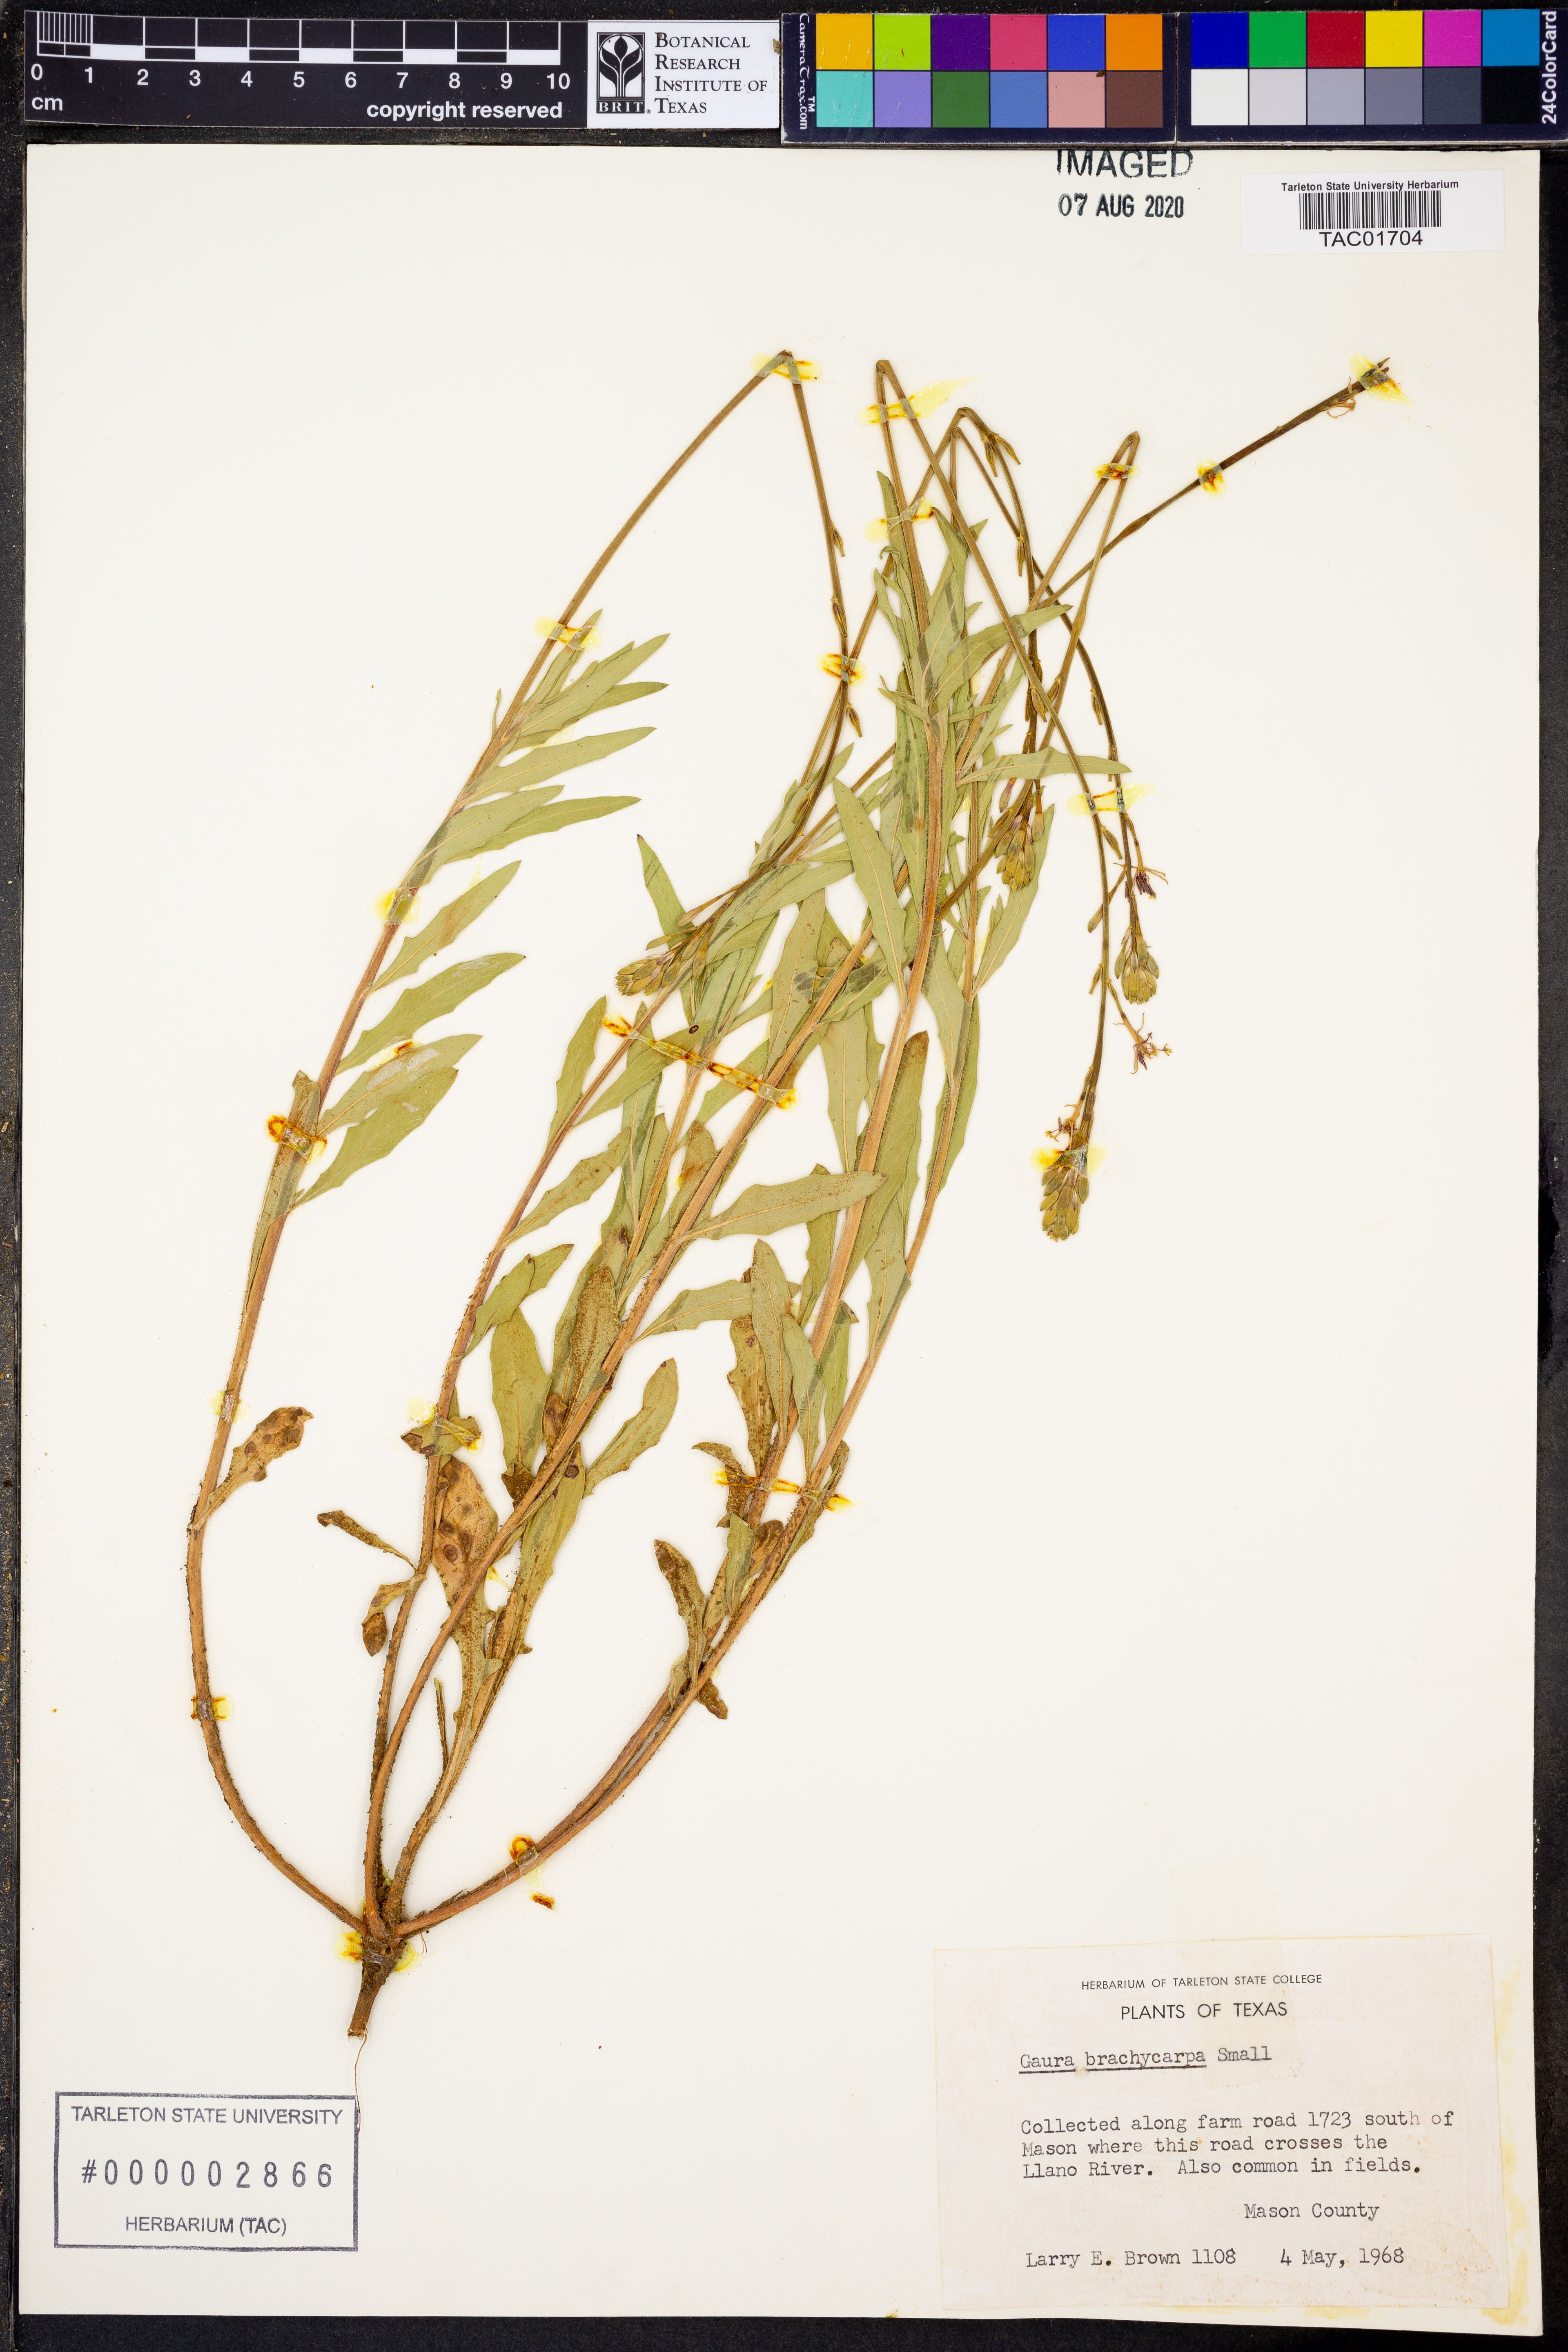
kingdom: Plantae
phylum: Tracheophyta
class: Magnoliopsida
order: Myrtales
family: Onagraceae
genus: Oenothera
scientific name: Oenothera patriciae
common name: Plains beeblossom
